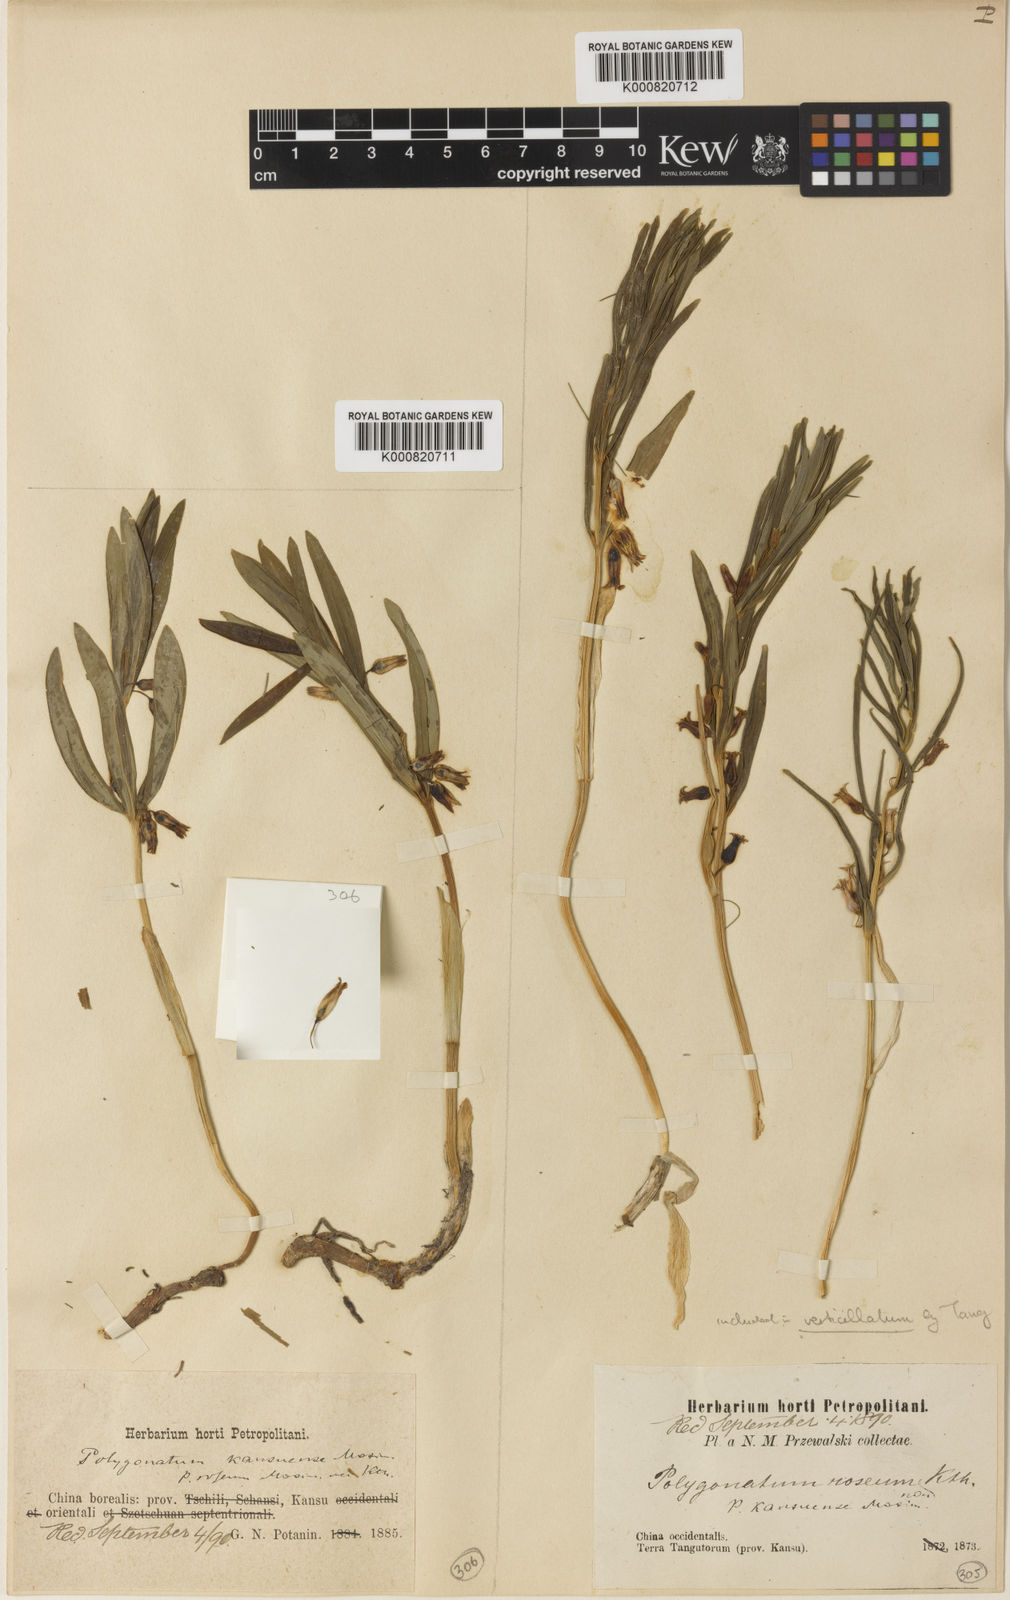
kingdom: Plantae
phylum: Tracheophyta
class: Liliopsida
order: Asparagales
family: Asparagaceae
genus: Polygonatum
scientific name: Polygonatum verticillatum
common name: Whorled solomon's-seal
